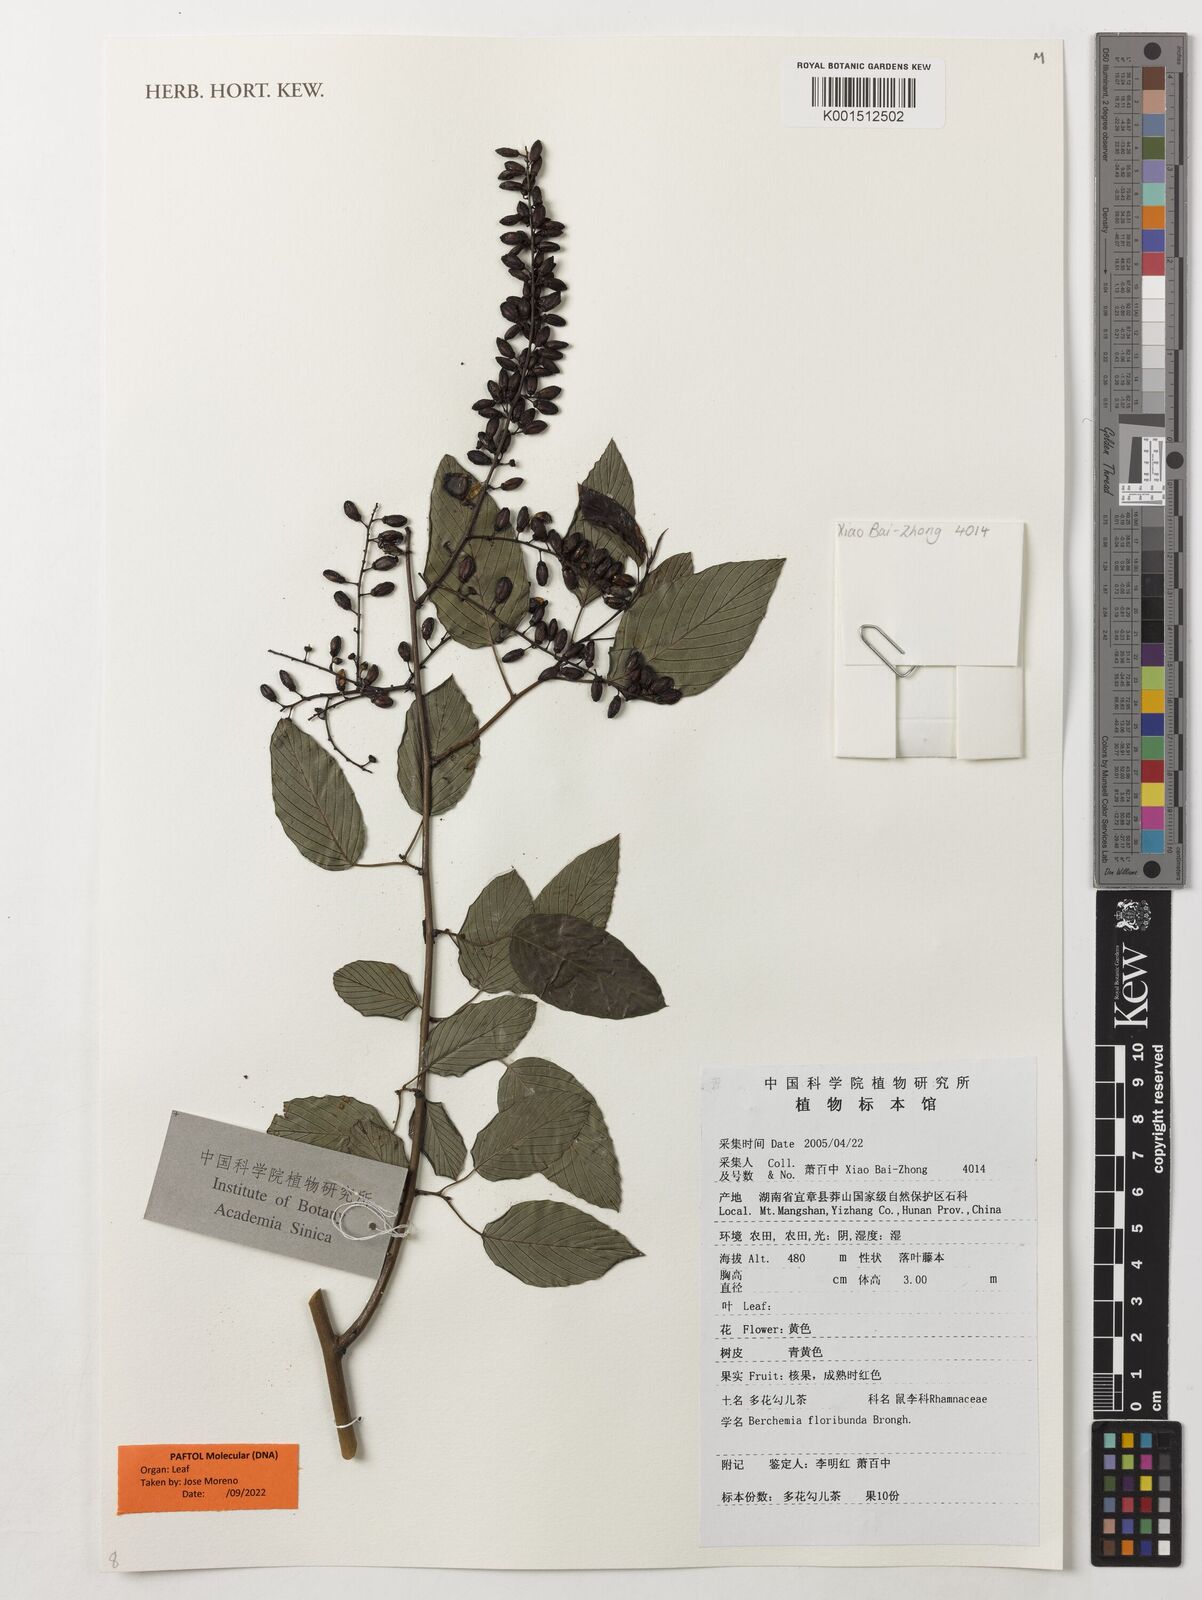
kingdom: Plantae
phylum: Tracheophyta
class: Magnoliopsida
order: Rosales
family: Rhamnaceae
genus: Berchemia
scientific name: Berchemia floribunda
